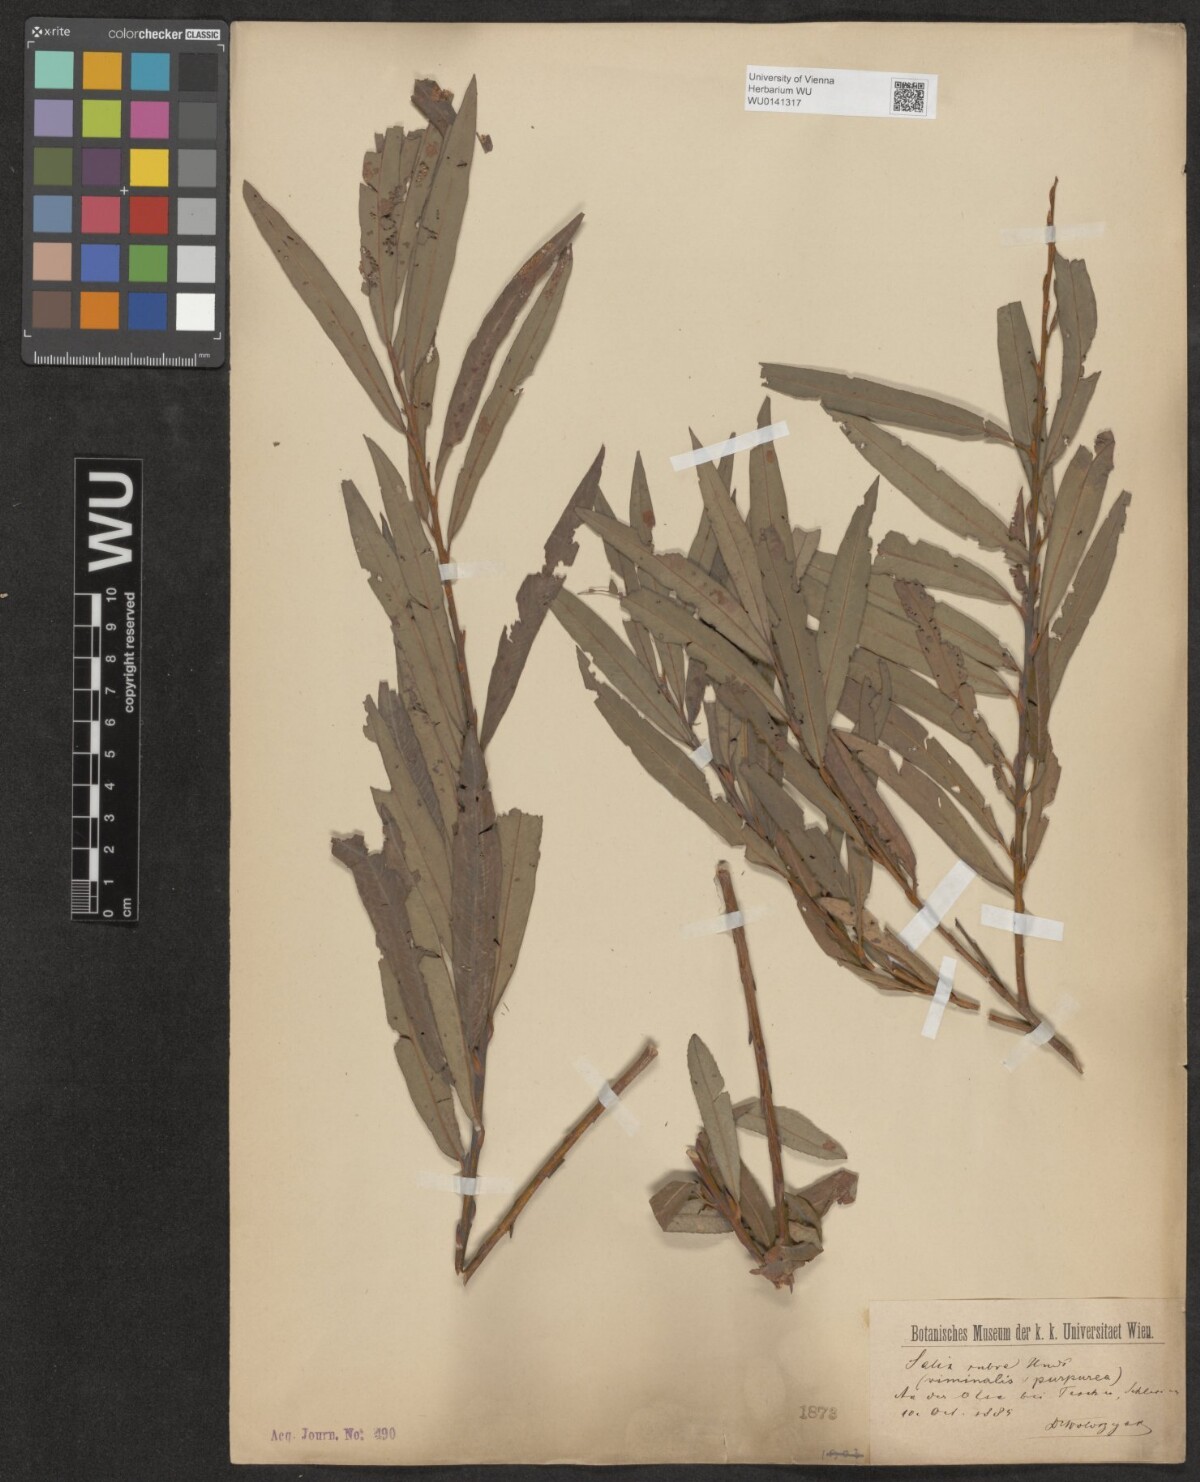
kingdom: Plantae
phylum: Tracheophyta
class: Magnoliopsida
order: Malpighiales
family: Salicaceae
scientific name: Salicaceae
